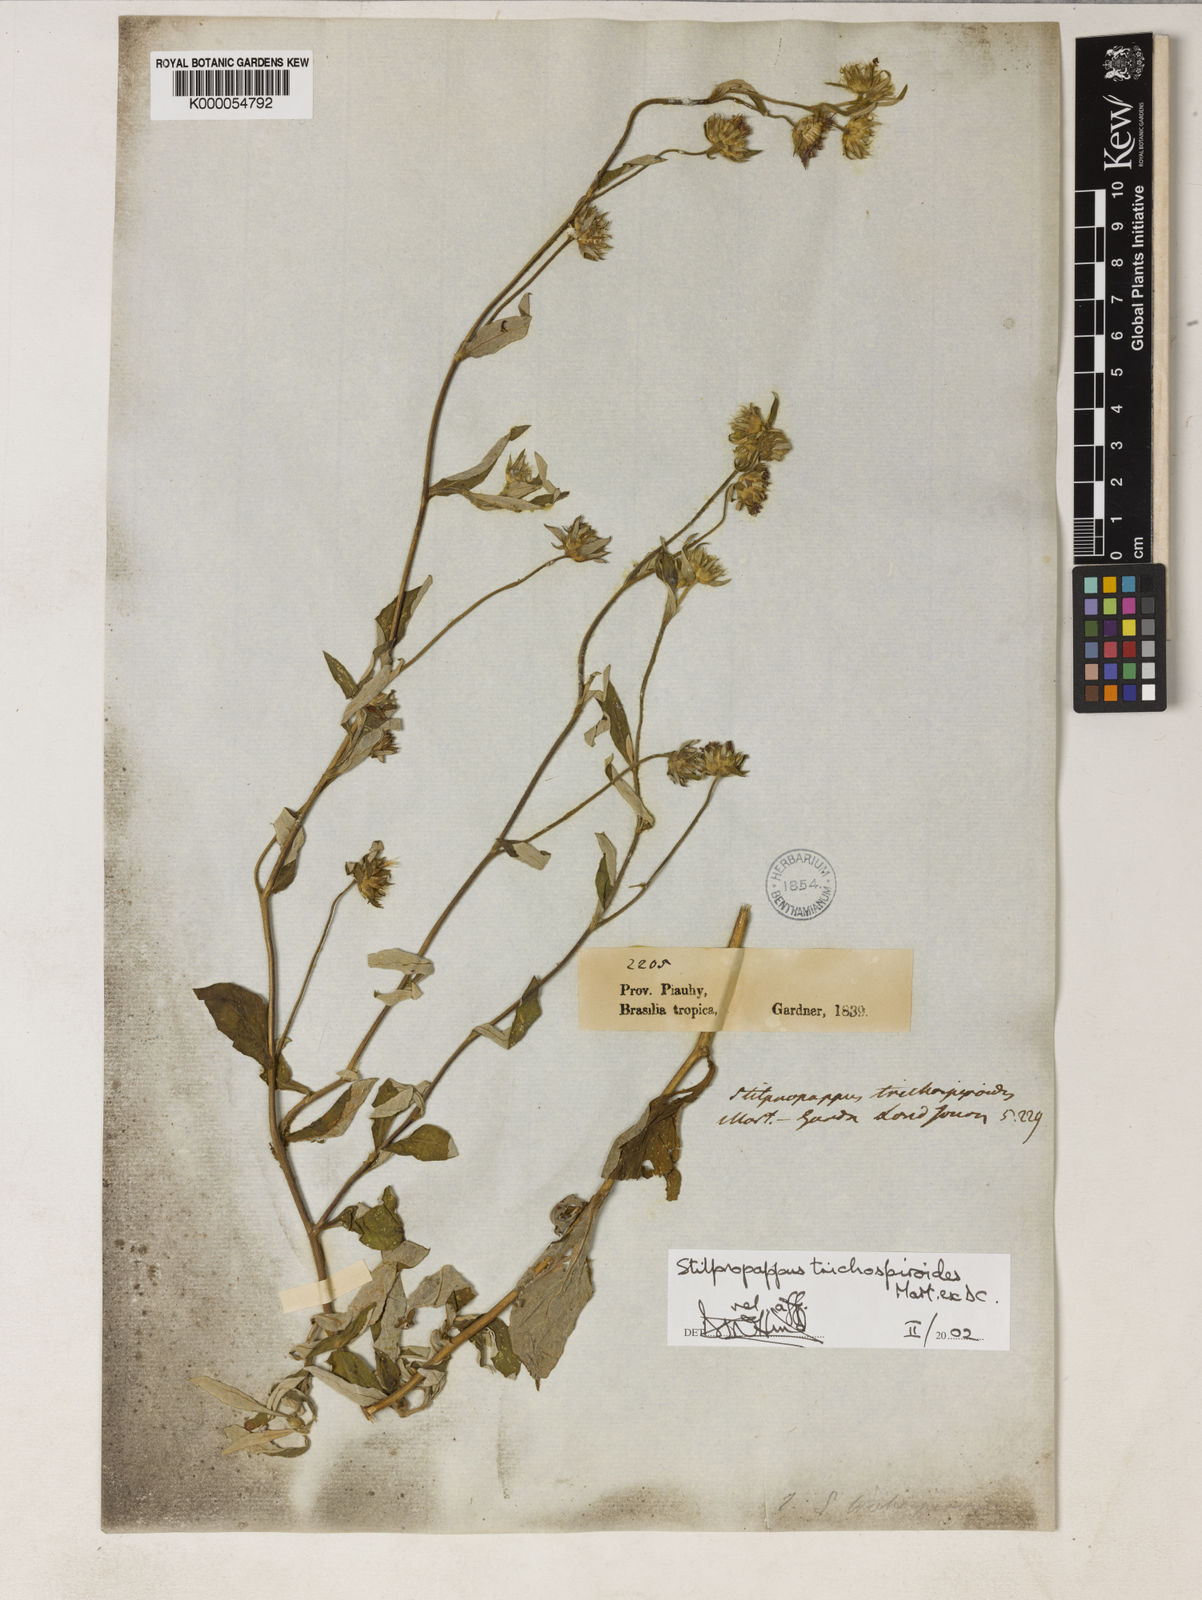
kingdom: Plantae
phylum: Tracheophyta
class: Magnoliopsida
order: Asterales
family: Asteraceae
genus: Stilpnopappus
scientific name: Stilpnopappus
